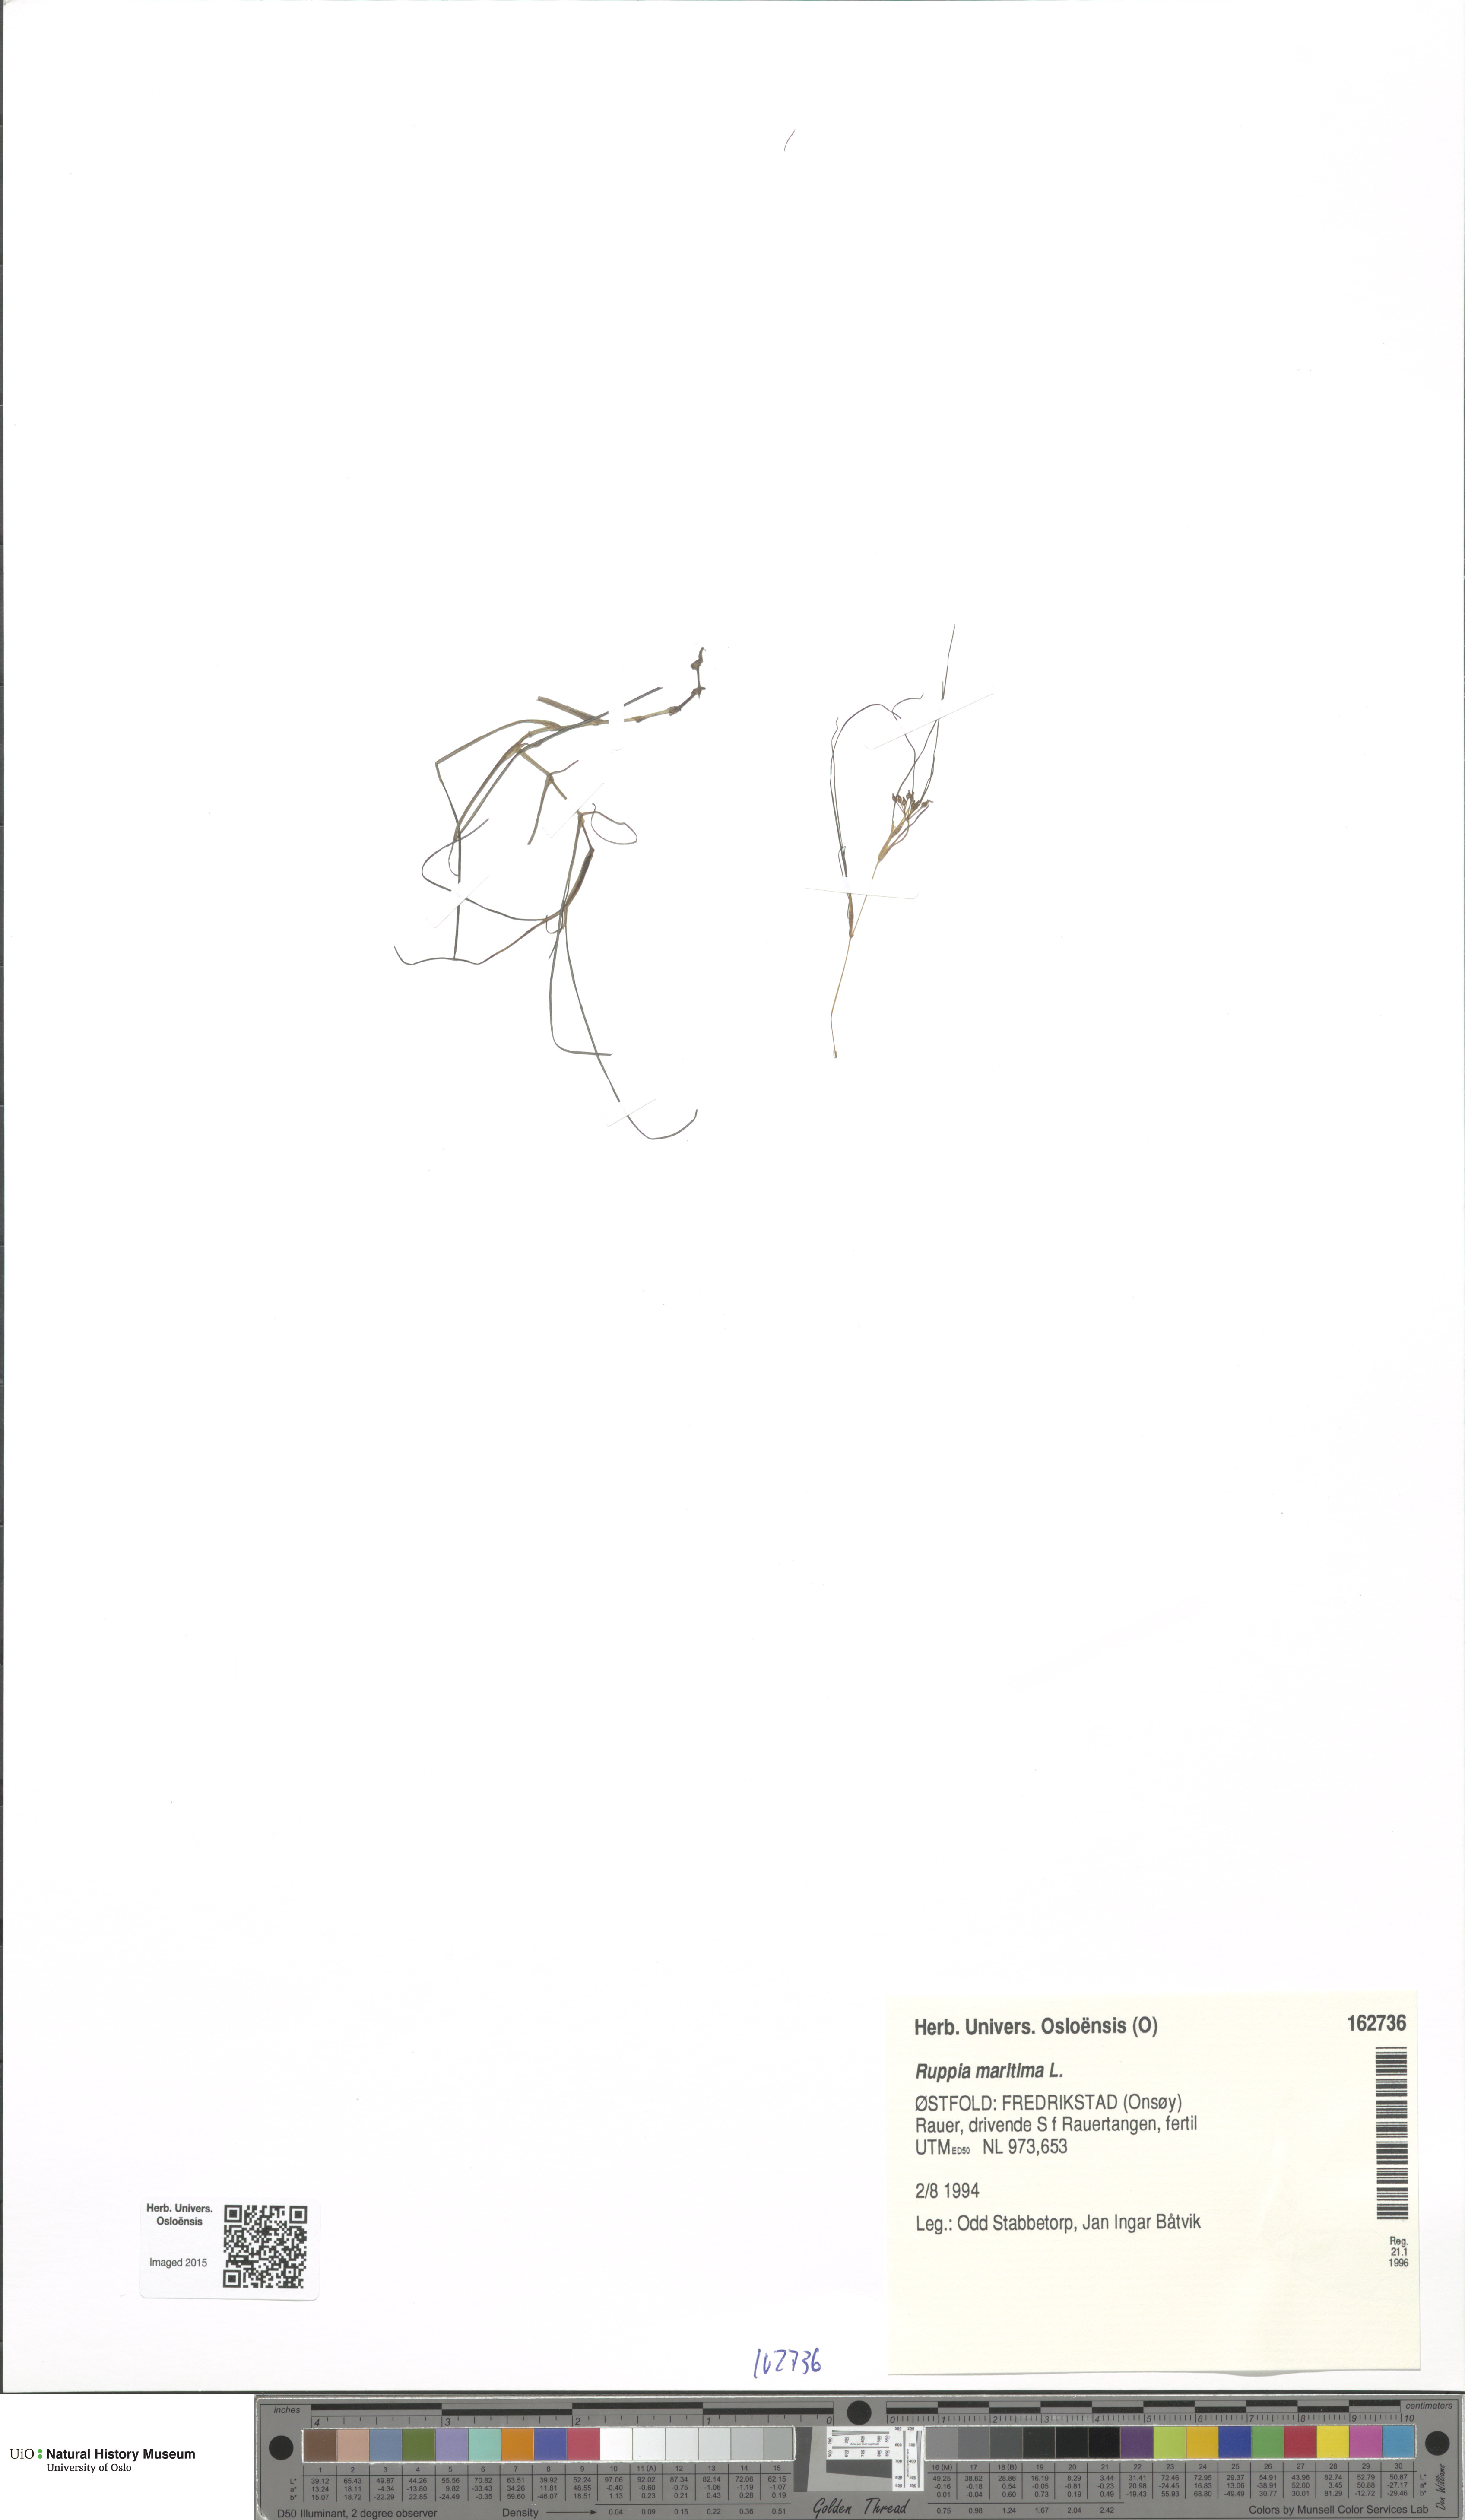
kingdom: Plantae
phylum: Tracheophyta
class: Liliopsida
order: Alismatales
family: Ruppiaceae
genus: Ruppia
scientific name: Ruppia maritima
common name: Beaked tasselweed
